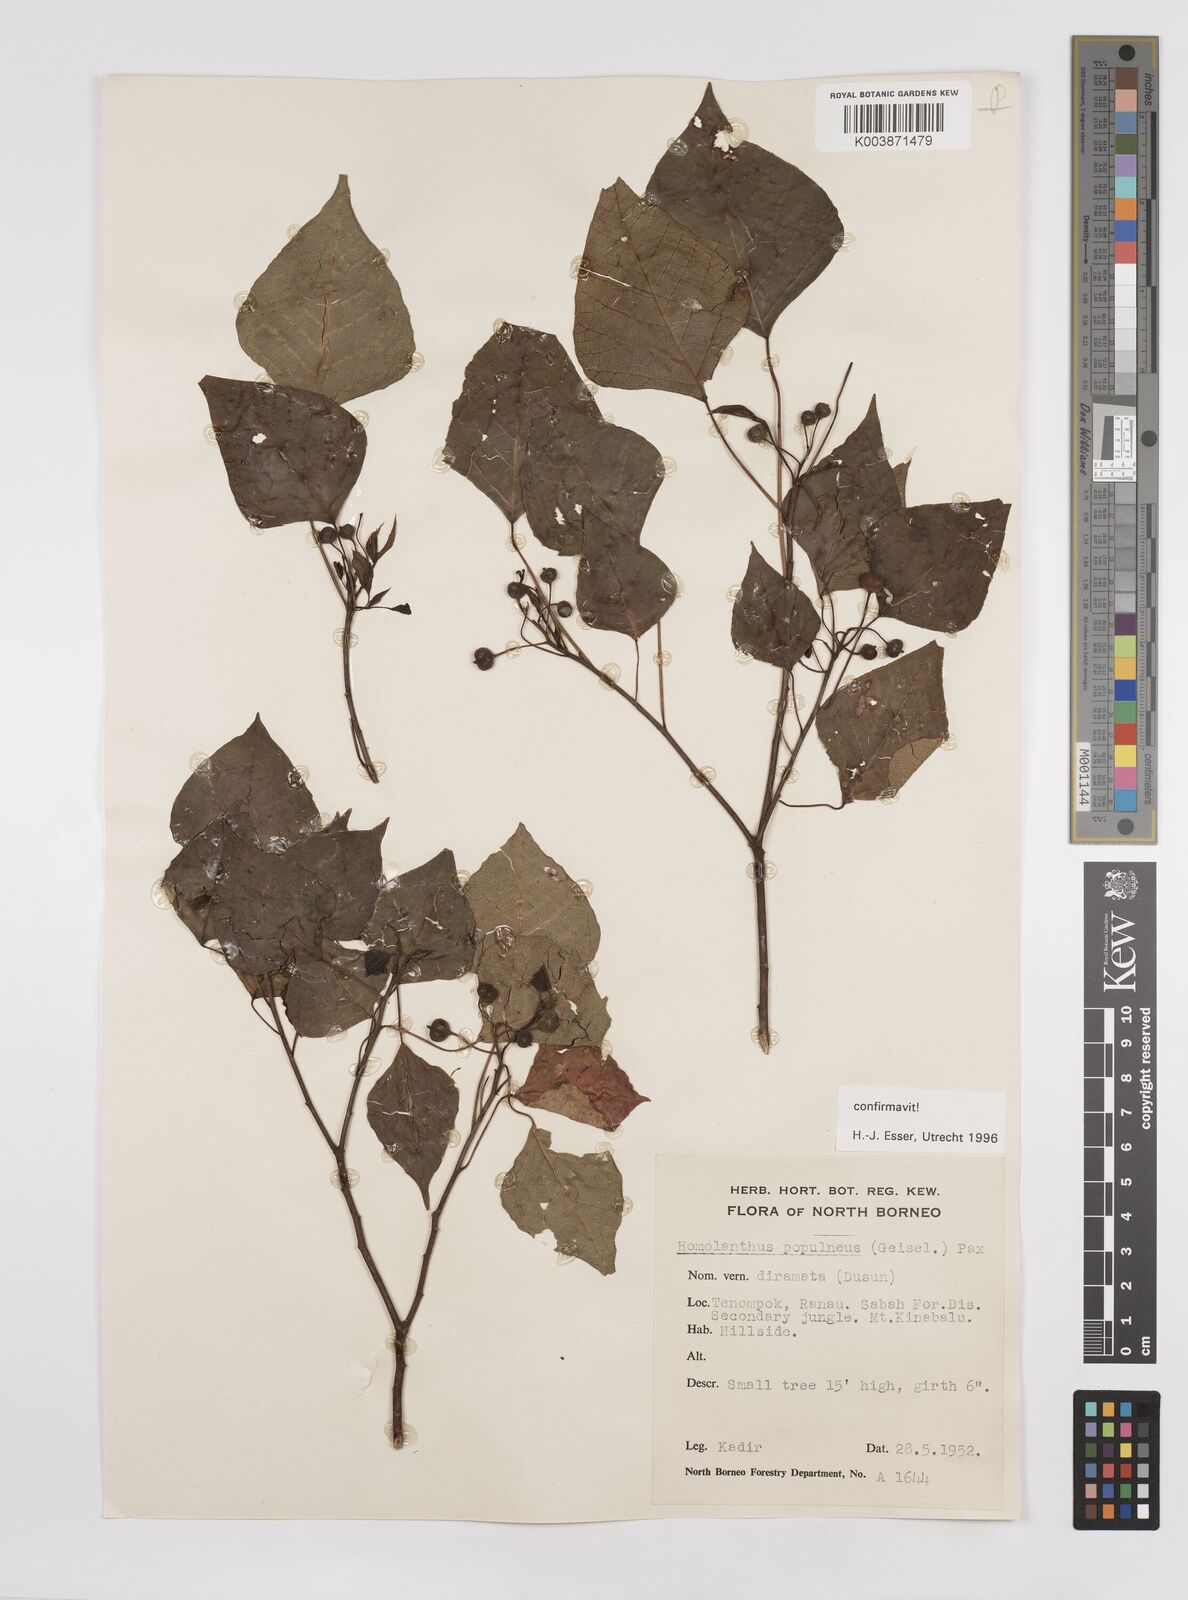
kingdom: Plantae
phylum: Tracheophyta
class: Magnoliopsida
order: Malpighiales
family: Euphorbiaceae
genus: Homalanthus
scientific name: Homalanthus populneus
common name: Spurge
